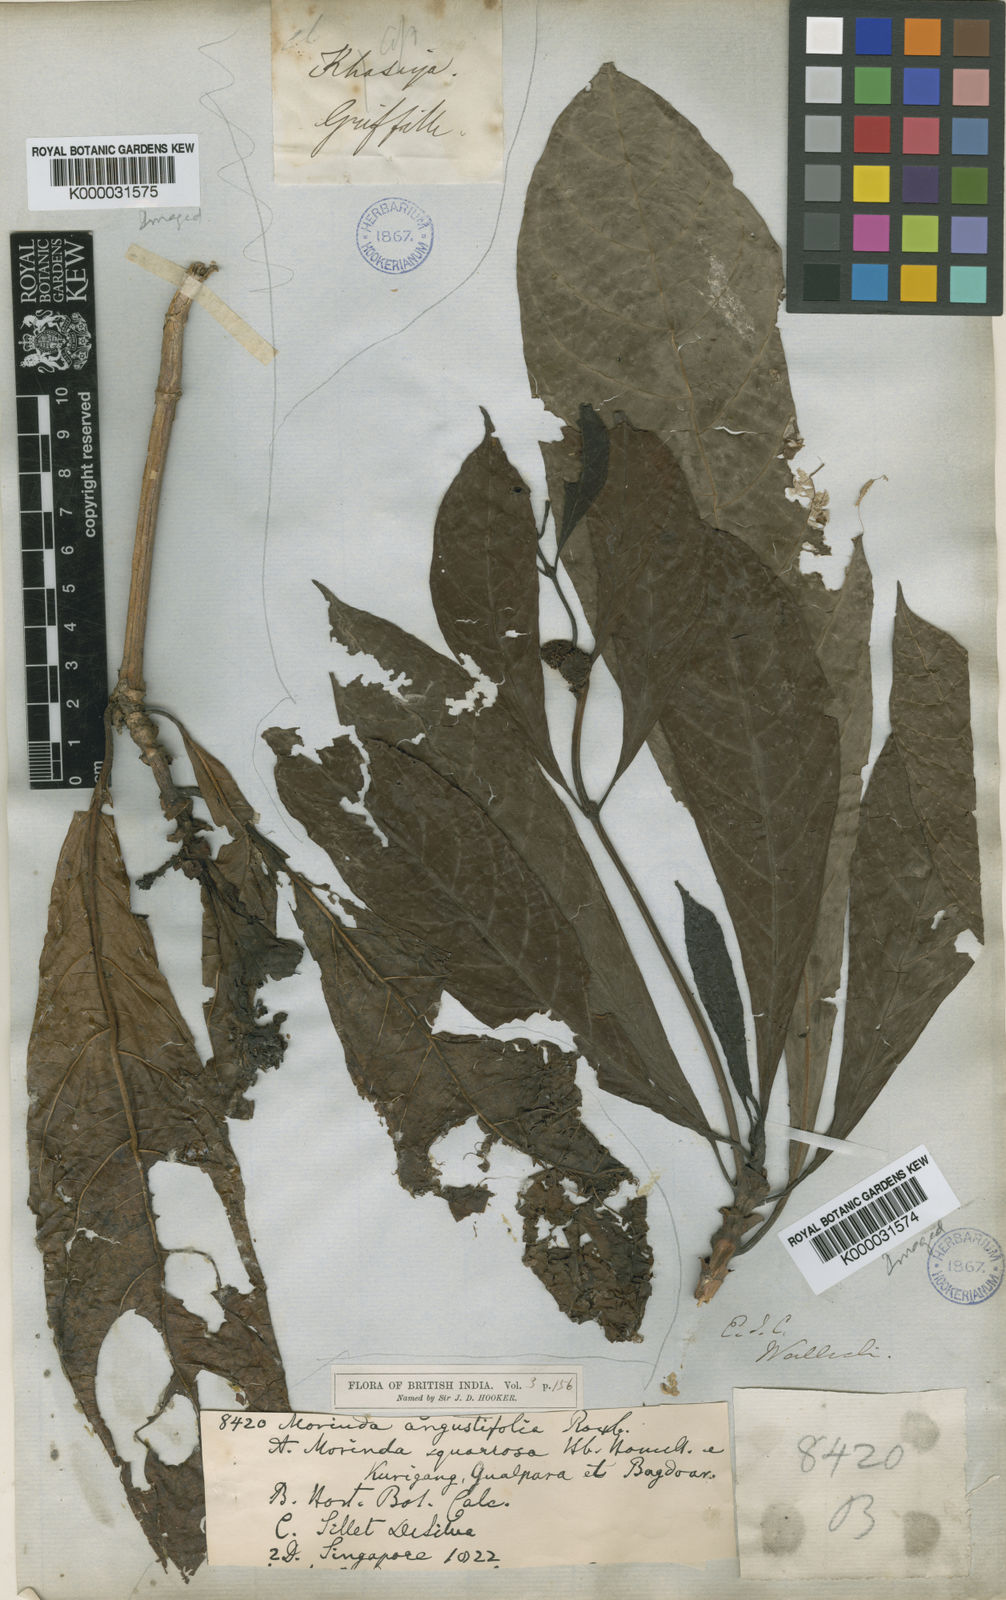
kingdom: Plantae
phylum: Tracheophyta
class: Magnoliopsida
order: Gentianales
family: Rubiaceae
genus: Morinda
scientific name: Morinda angustifolia
